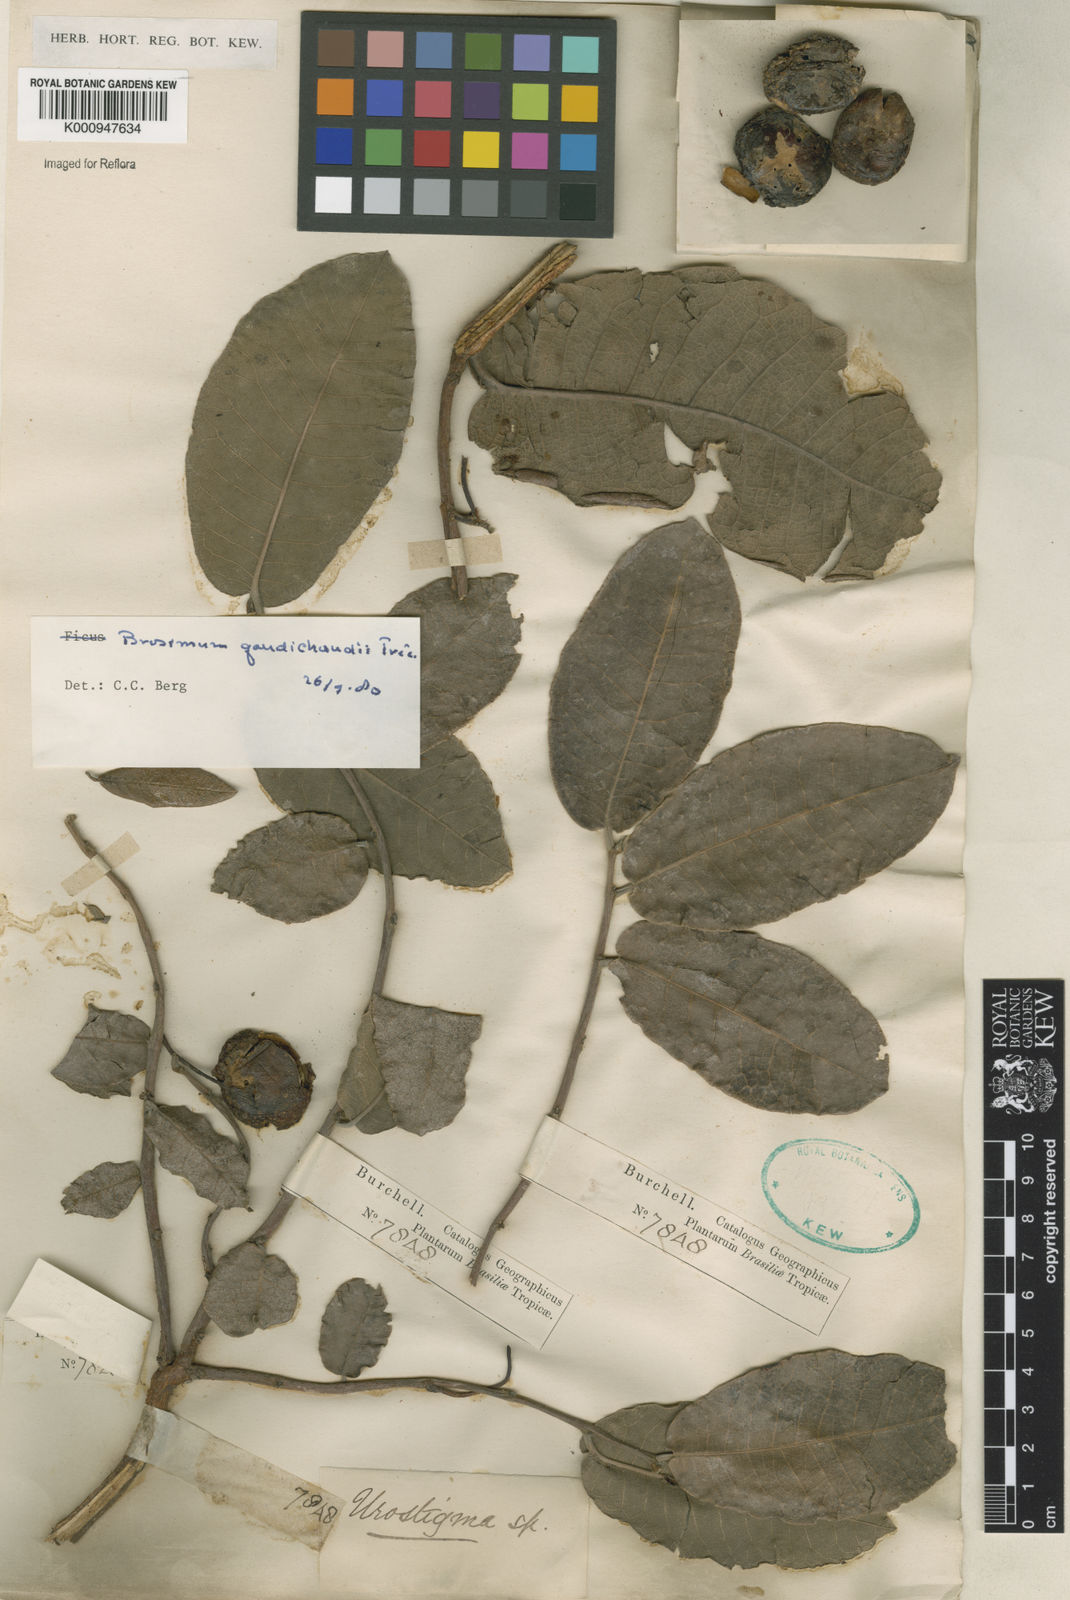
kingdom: Plantae
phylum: Tracheophyta
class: Magnoliopsida
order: Rosales
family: Moraceae
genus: Brosimum
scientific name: Brosimum
